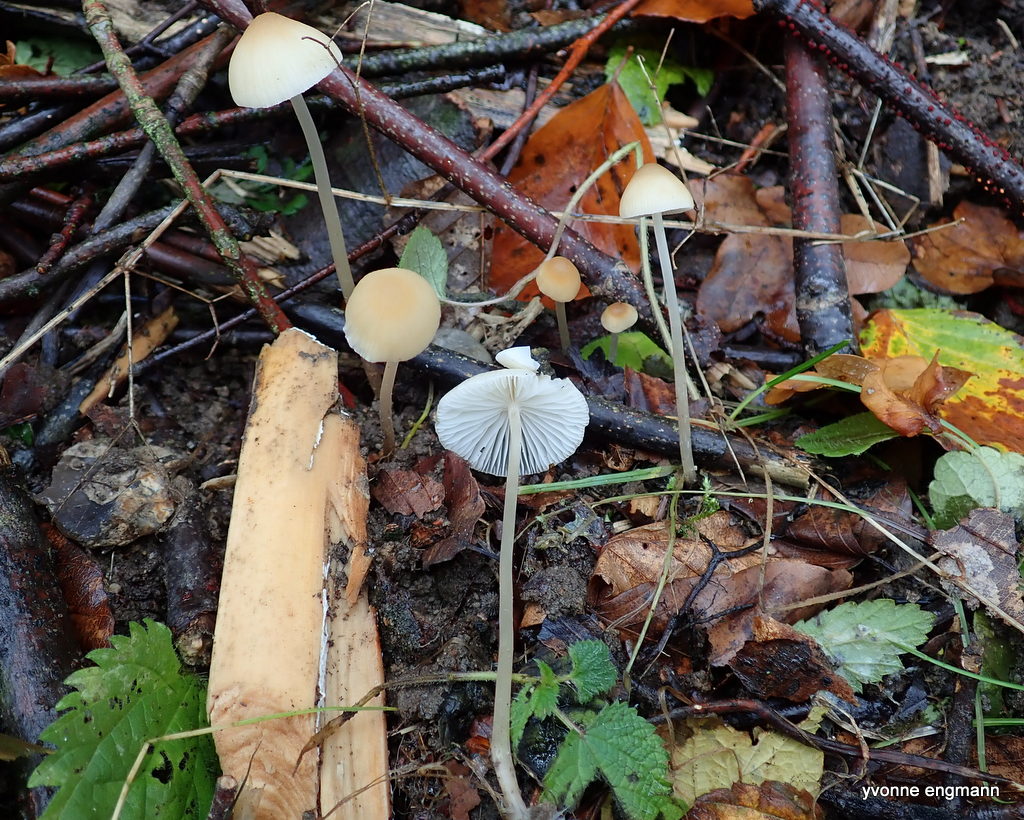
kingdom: Fungi
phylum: Basidiomycota
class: Agaricomycetes
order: Agaricales
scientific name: Agaricales
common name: champignonordenen
